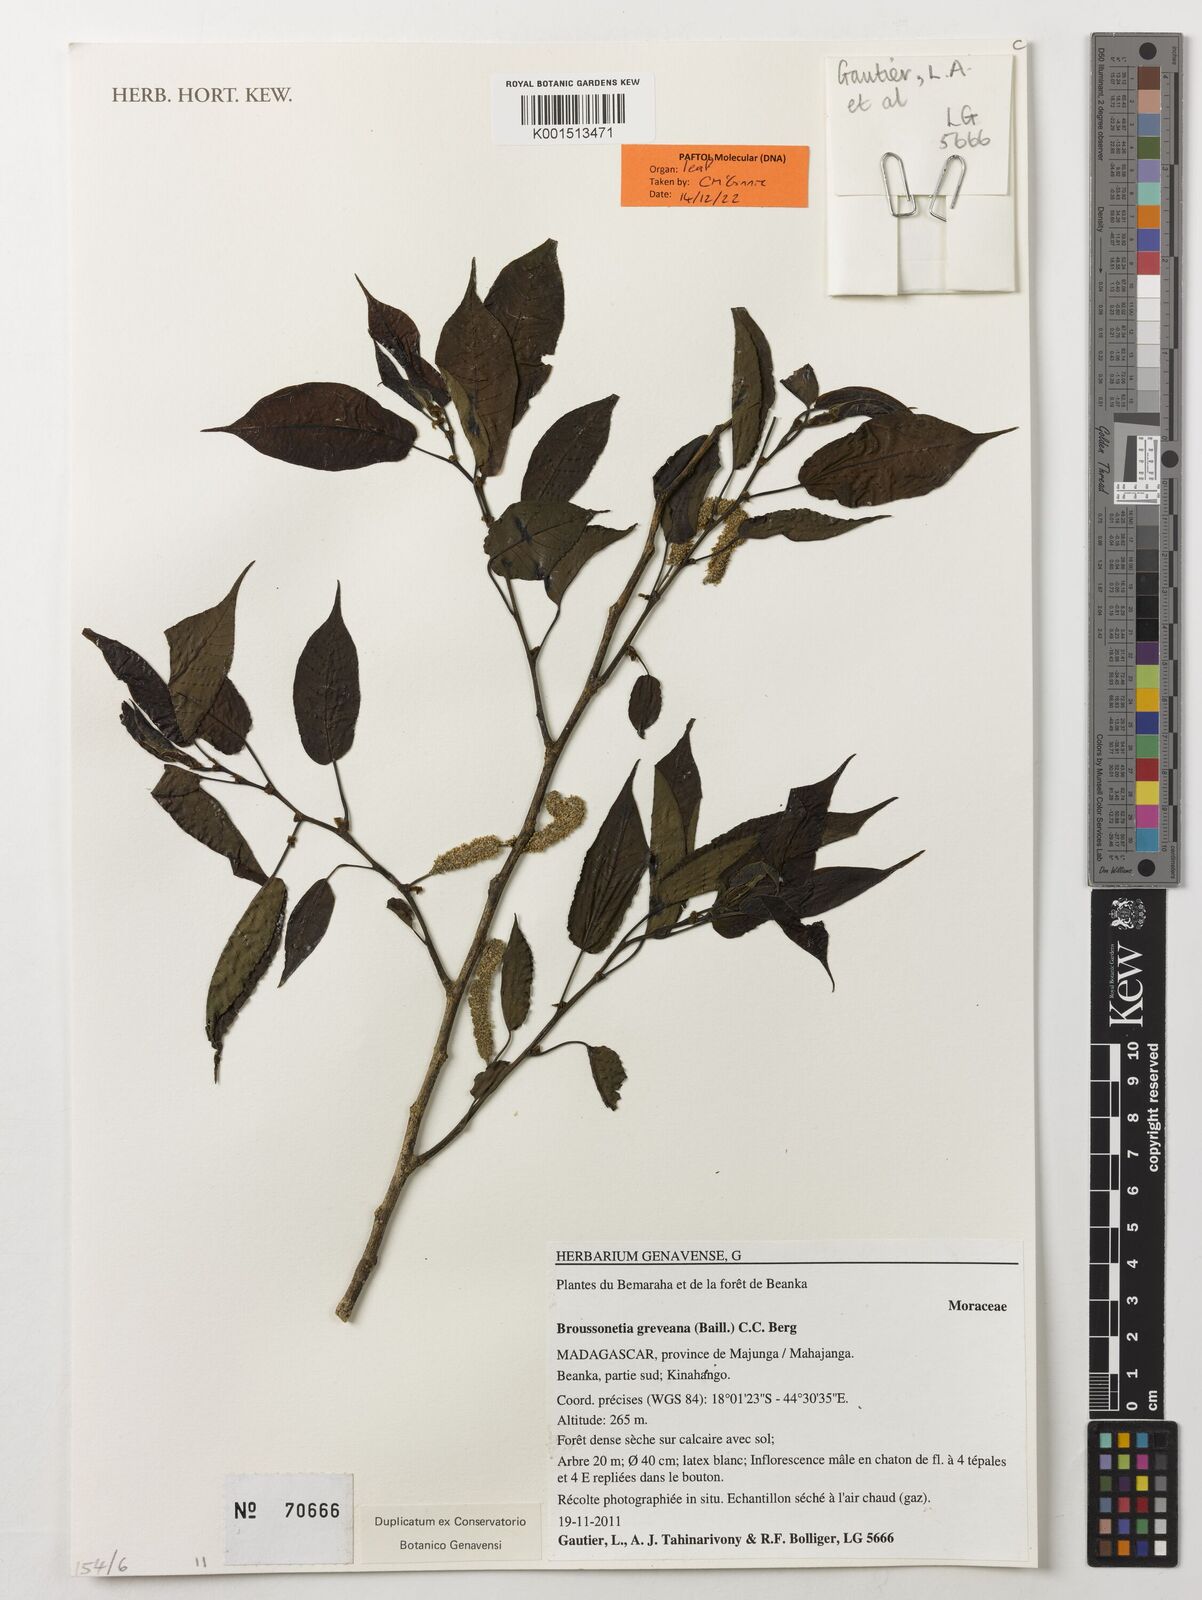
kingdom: Plantae
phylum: Tracheophyta
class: Magnoliopsida
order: Rosales
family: Moraceae
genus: Allaeanthus
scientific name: Allaeanthus greveanus
